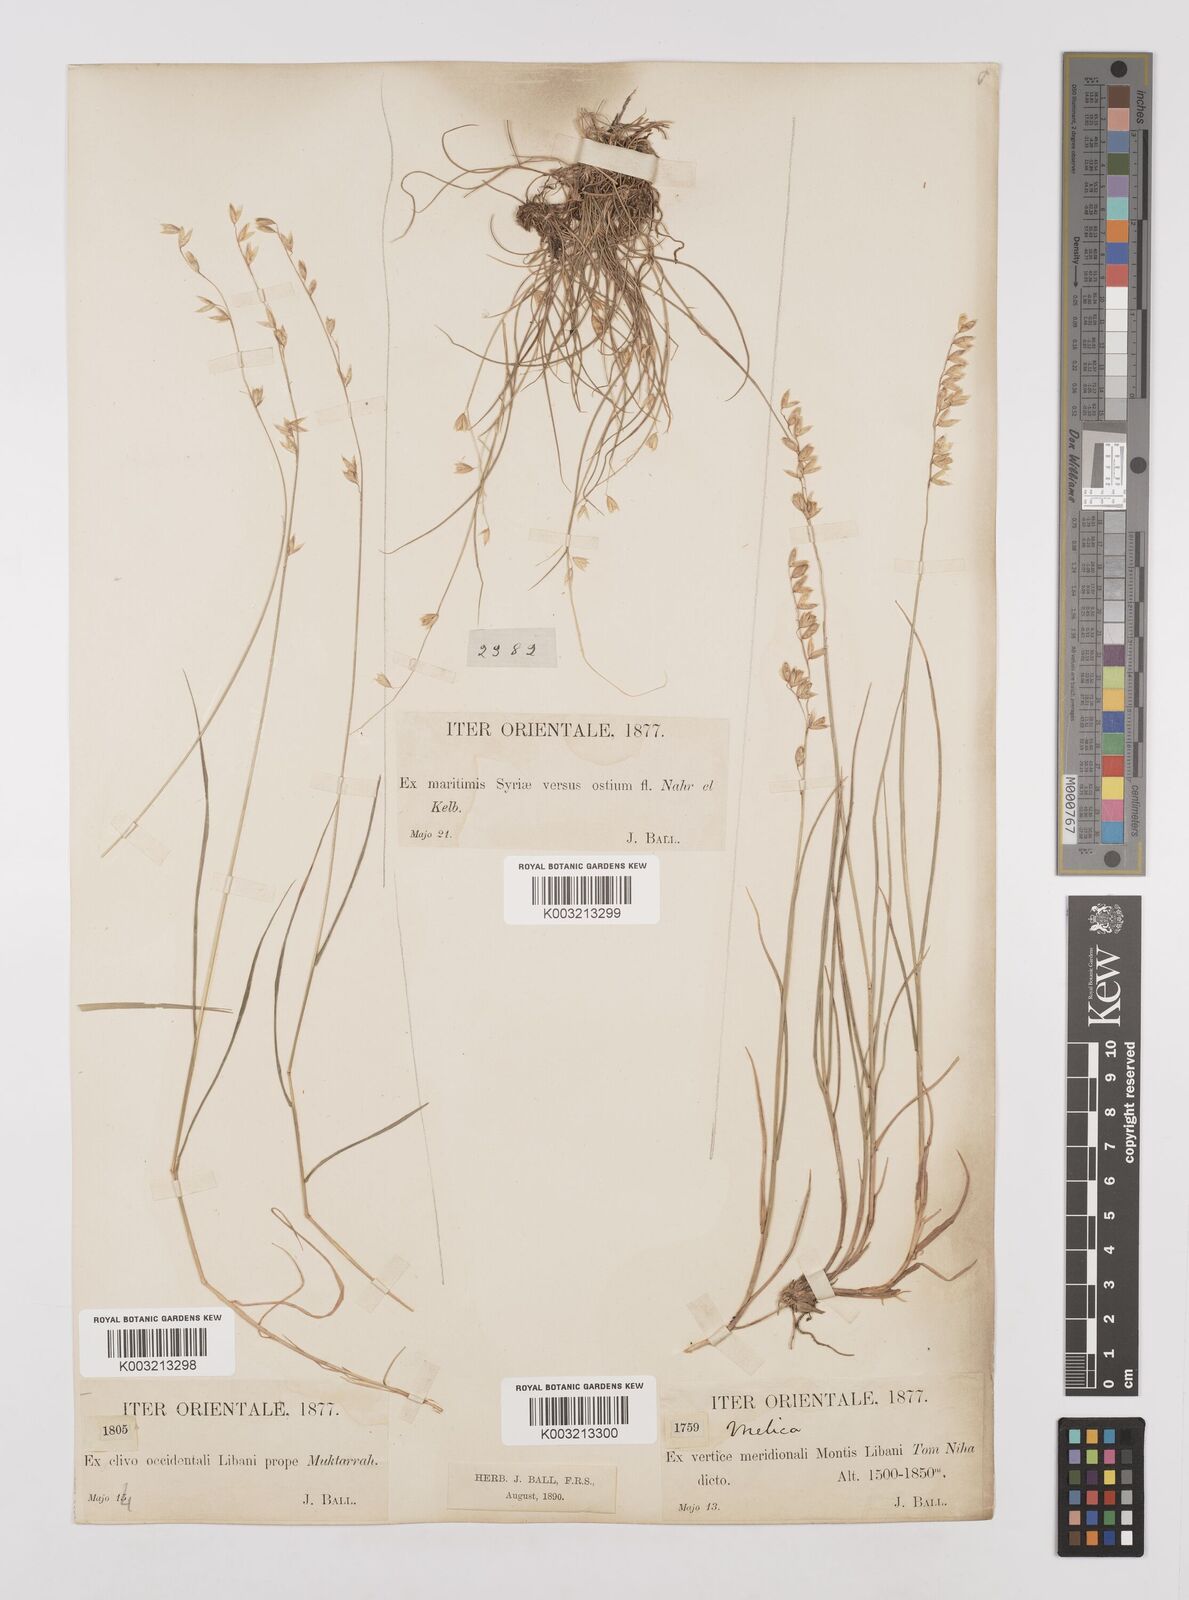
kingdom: Plantae
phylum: Tracheophyta
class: Liliopsida
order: Poales
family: Poaceae
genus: Melica
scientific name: Melica minuta
